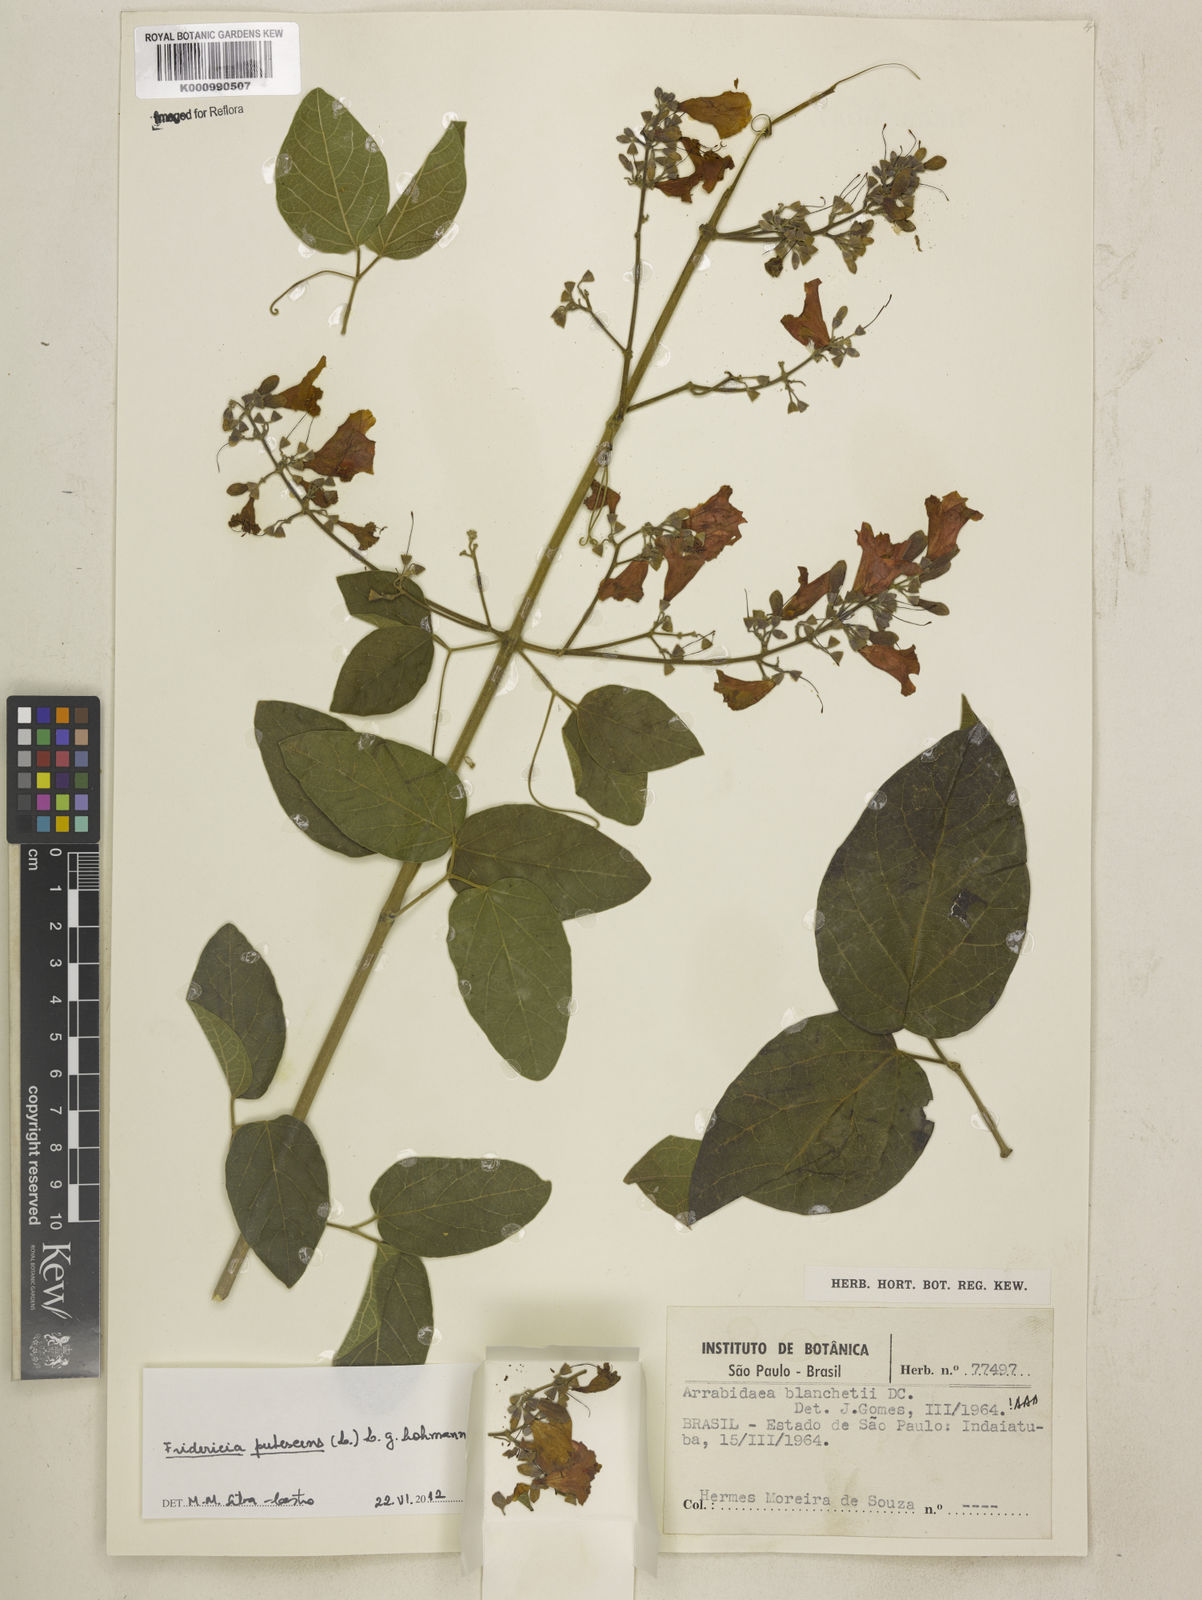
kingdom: Plantae
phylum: Tracheophyta
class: Magnoliopsida
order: Lamiales
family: Bignoniaceae
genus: Fridericia
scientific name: Fridericia pubescens
